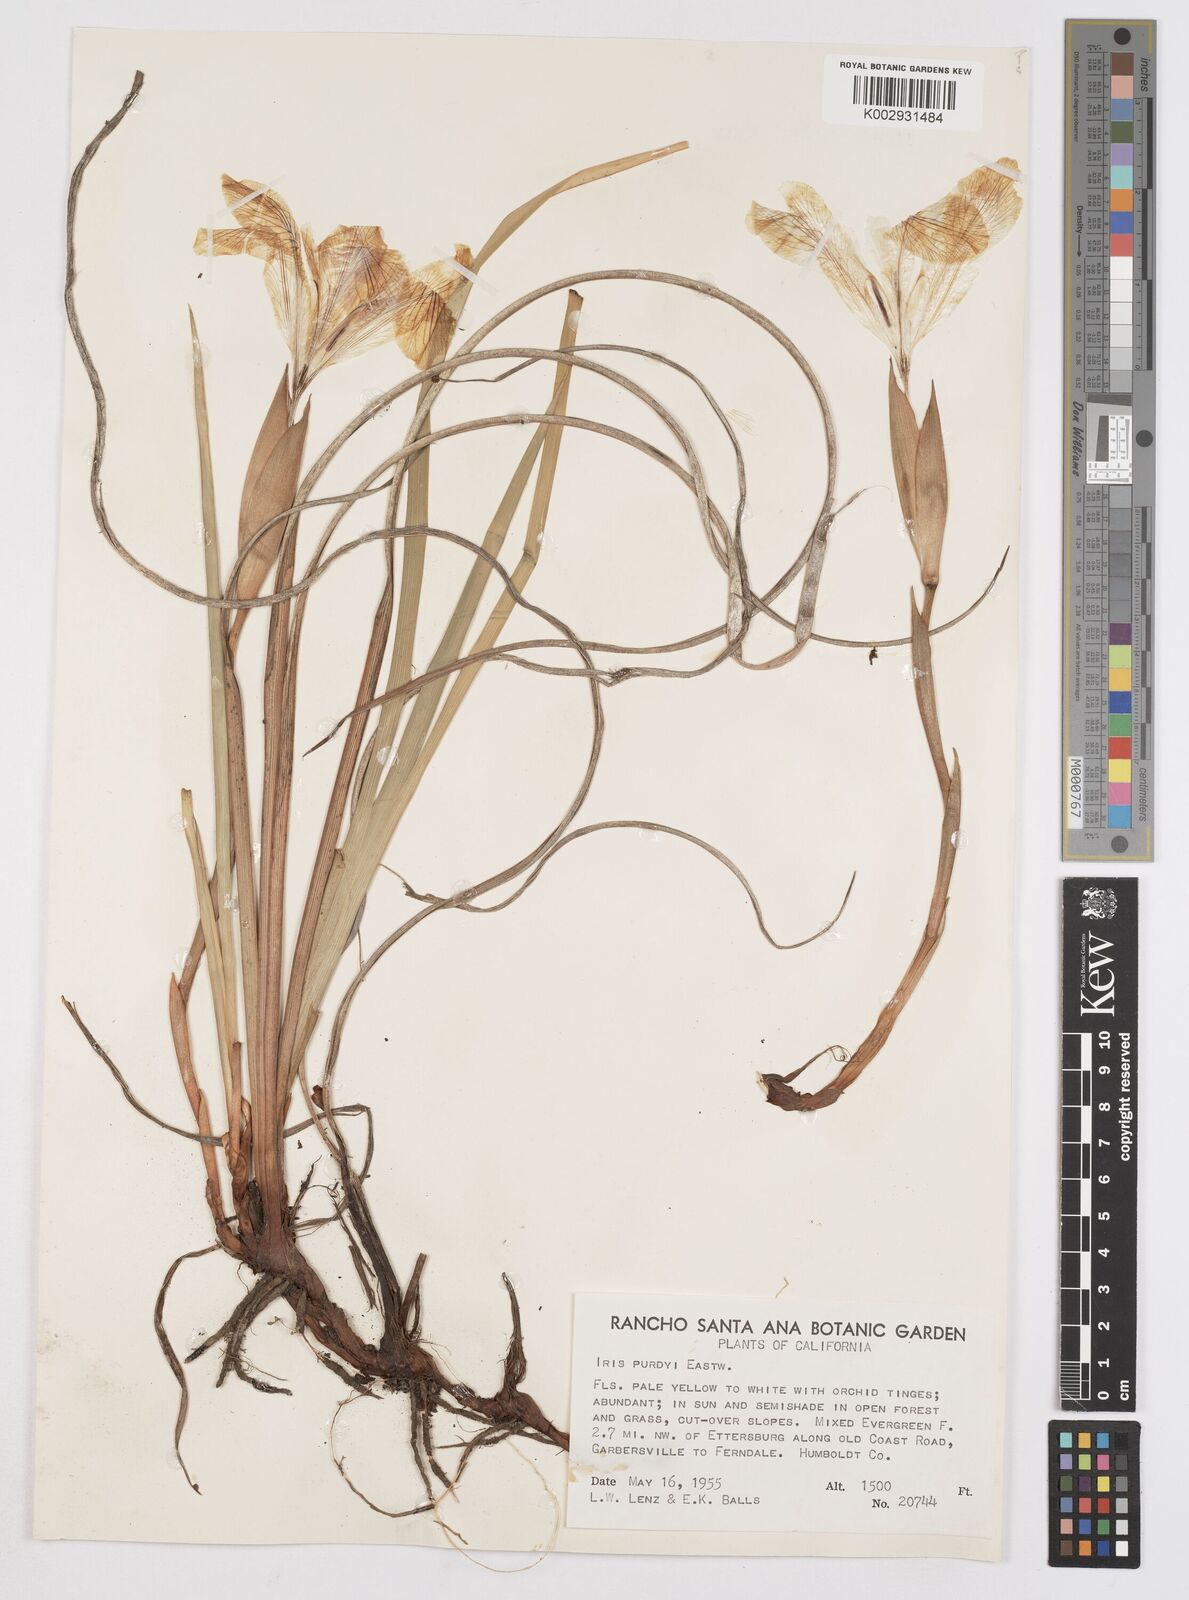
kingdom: Plantae
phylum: Tracheophyta
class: Liliopsida
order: Asparagales
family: Iridaceae
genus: Iris
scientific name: Iris purdyi
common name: Purdy's iris
